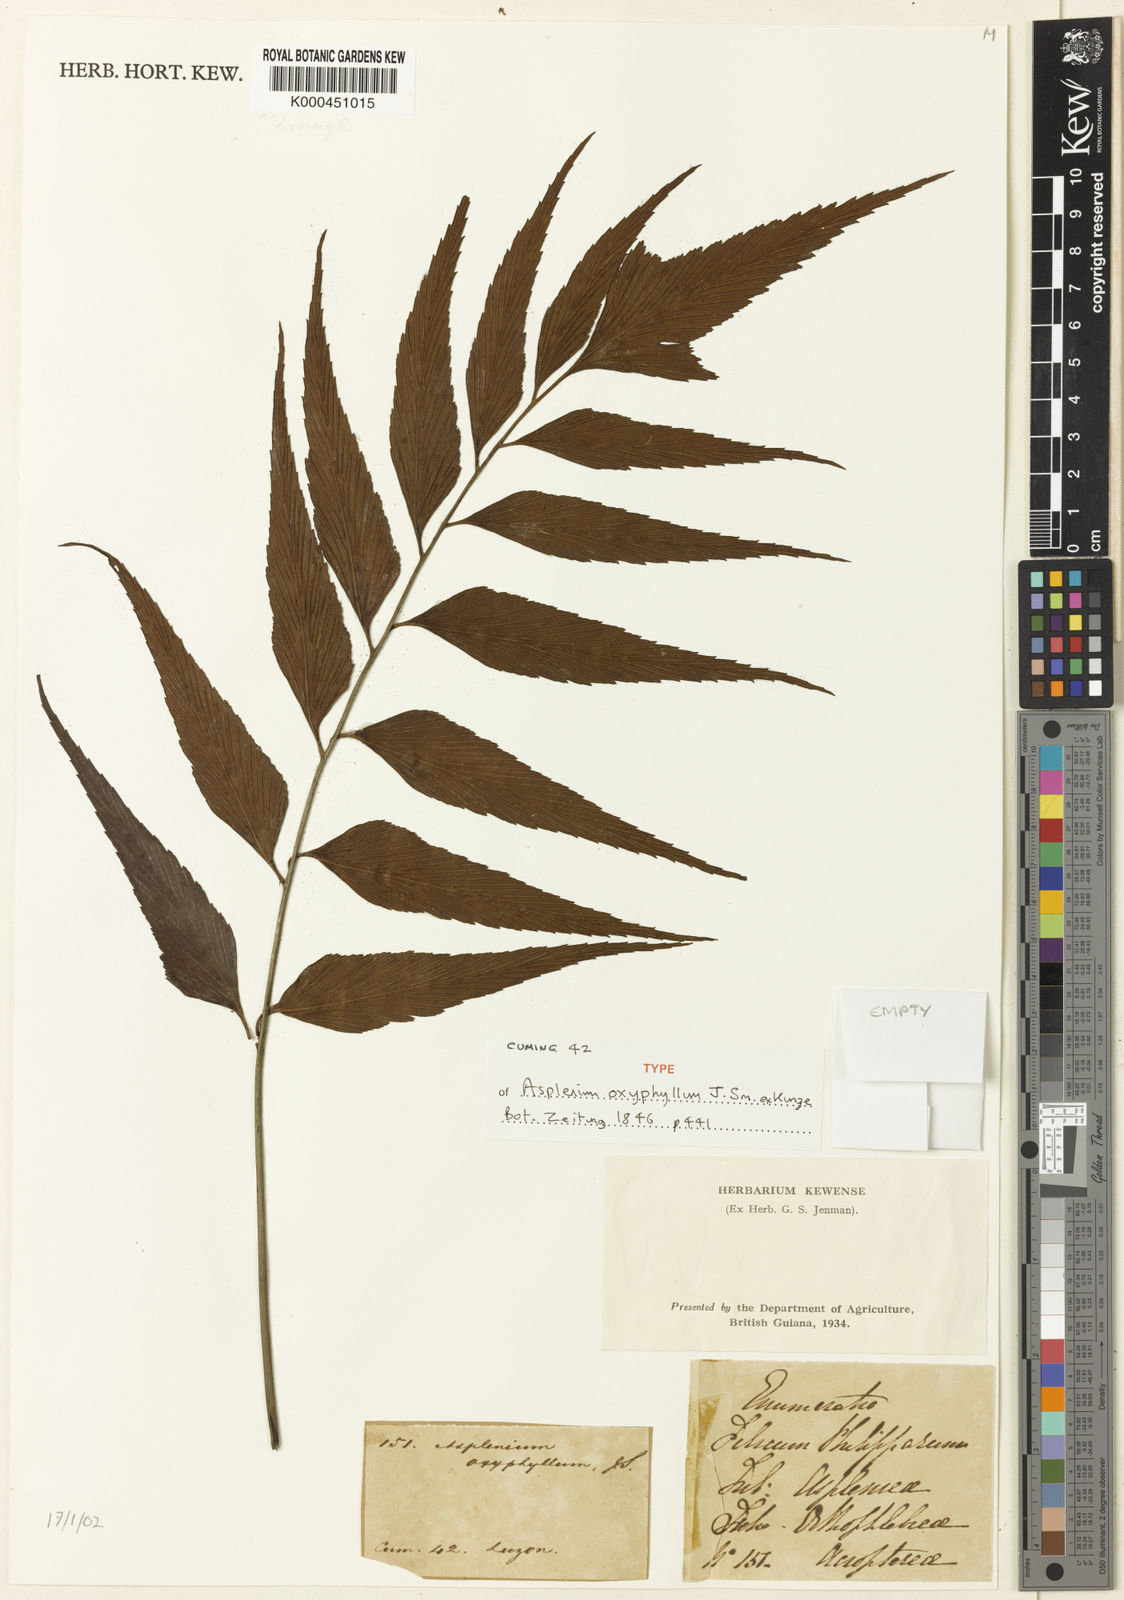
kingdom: Plantae
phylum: Tracheophyta
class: Polypodiopsida
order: Polypodiales
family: Aspleniaceae
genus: Asplenium
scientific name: Asplenium macrophyllum
